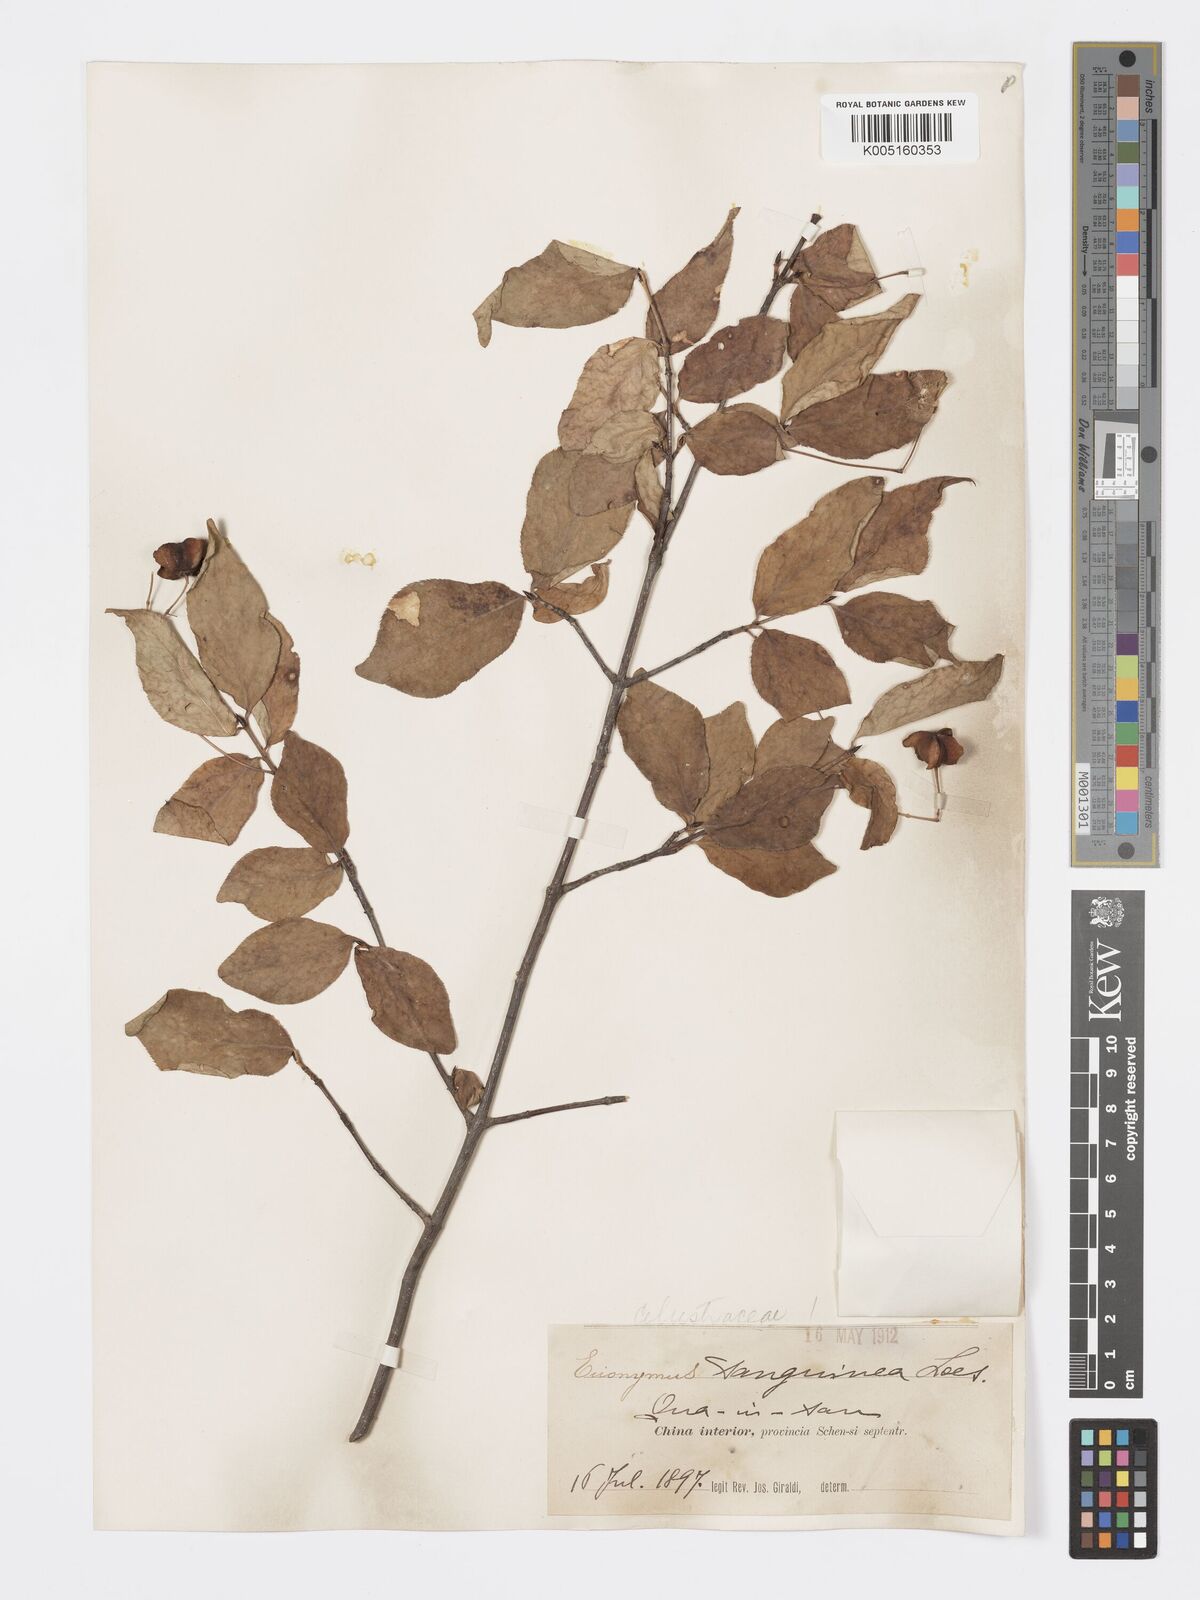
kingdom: Plantae
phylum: Tracheophyta
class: Magnoliopsida
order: Celastrales
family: Celastraceae
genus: Euonymus
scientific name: Euonymus macropterus
